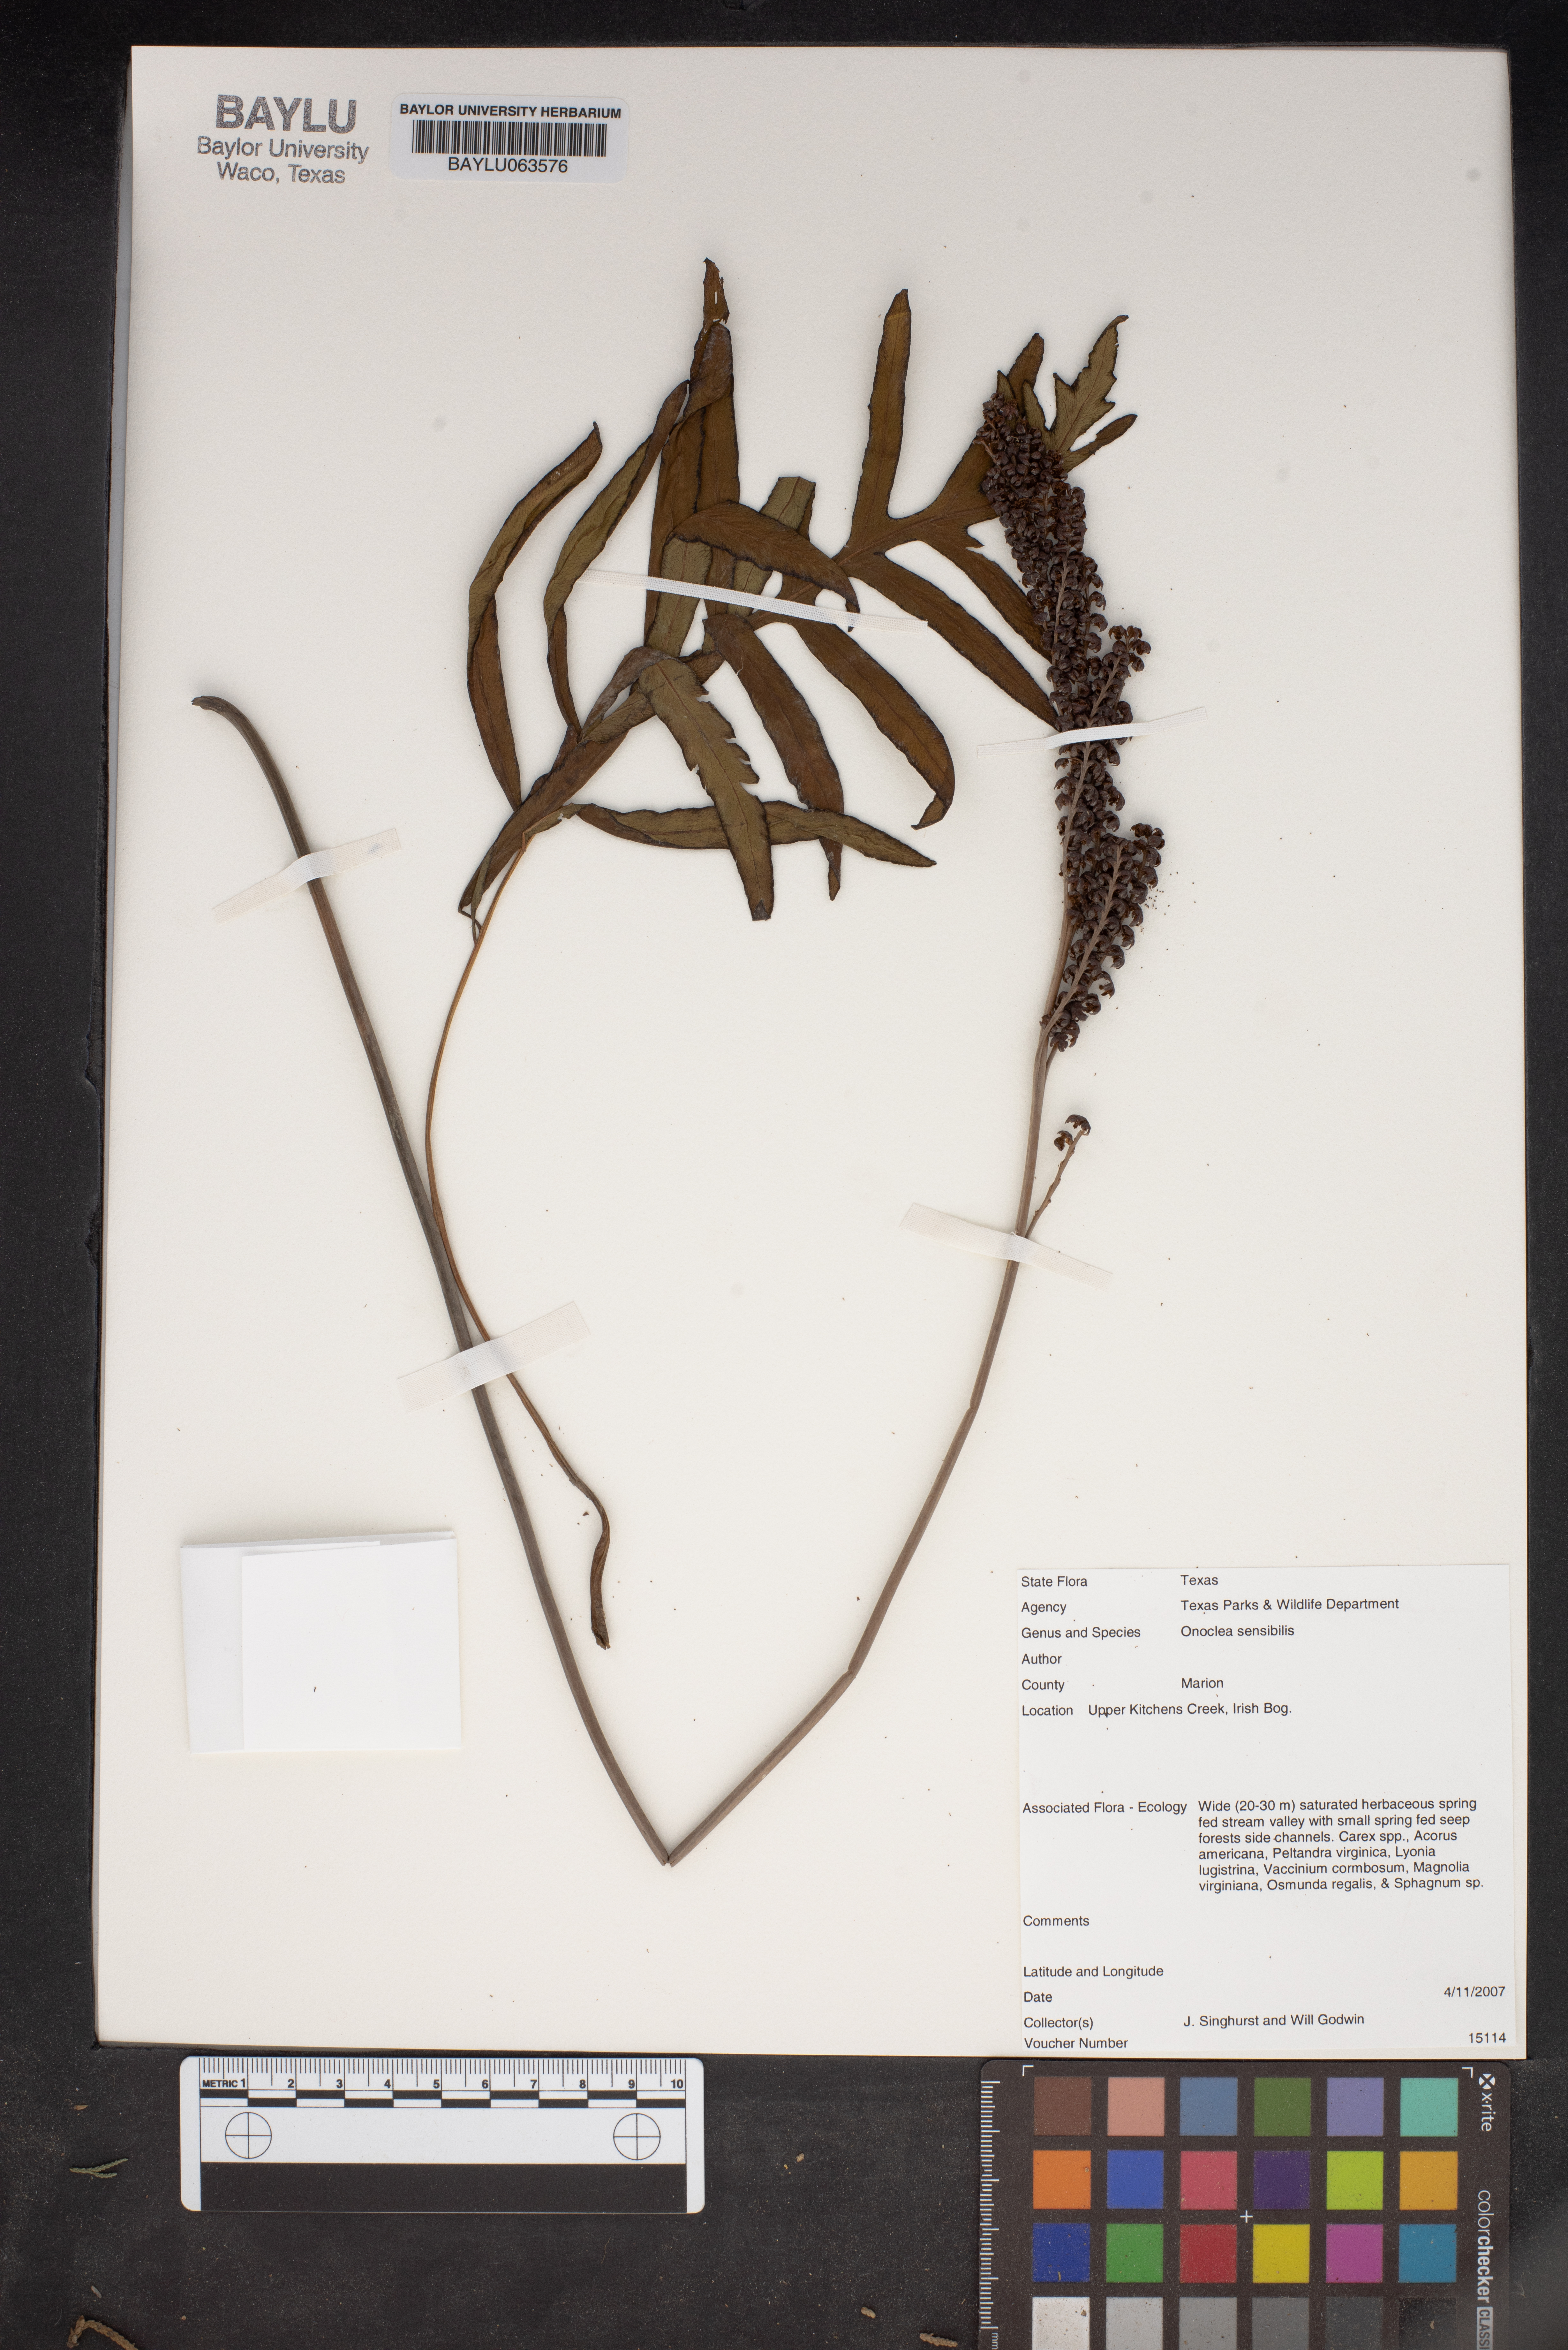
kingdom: Plantae
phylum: Tracheophyta
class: Polypodiopsida
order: Polypodiales
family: Onocleaceae
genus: Onoclea
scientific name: Onoclea sensibilis
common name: Sensitive fern
